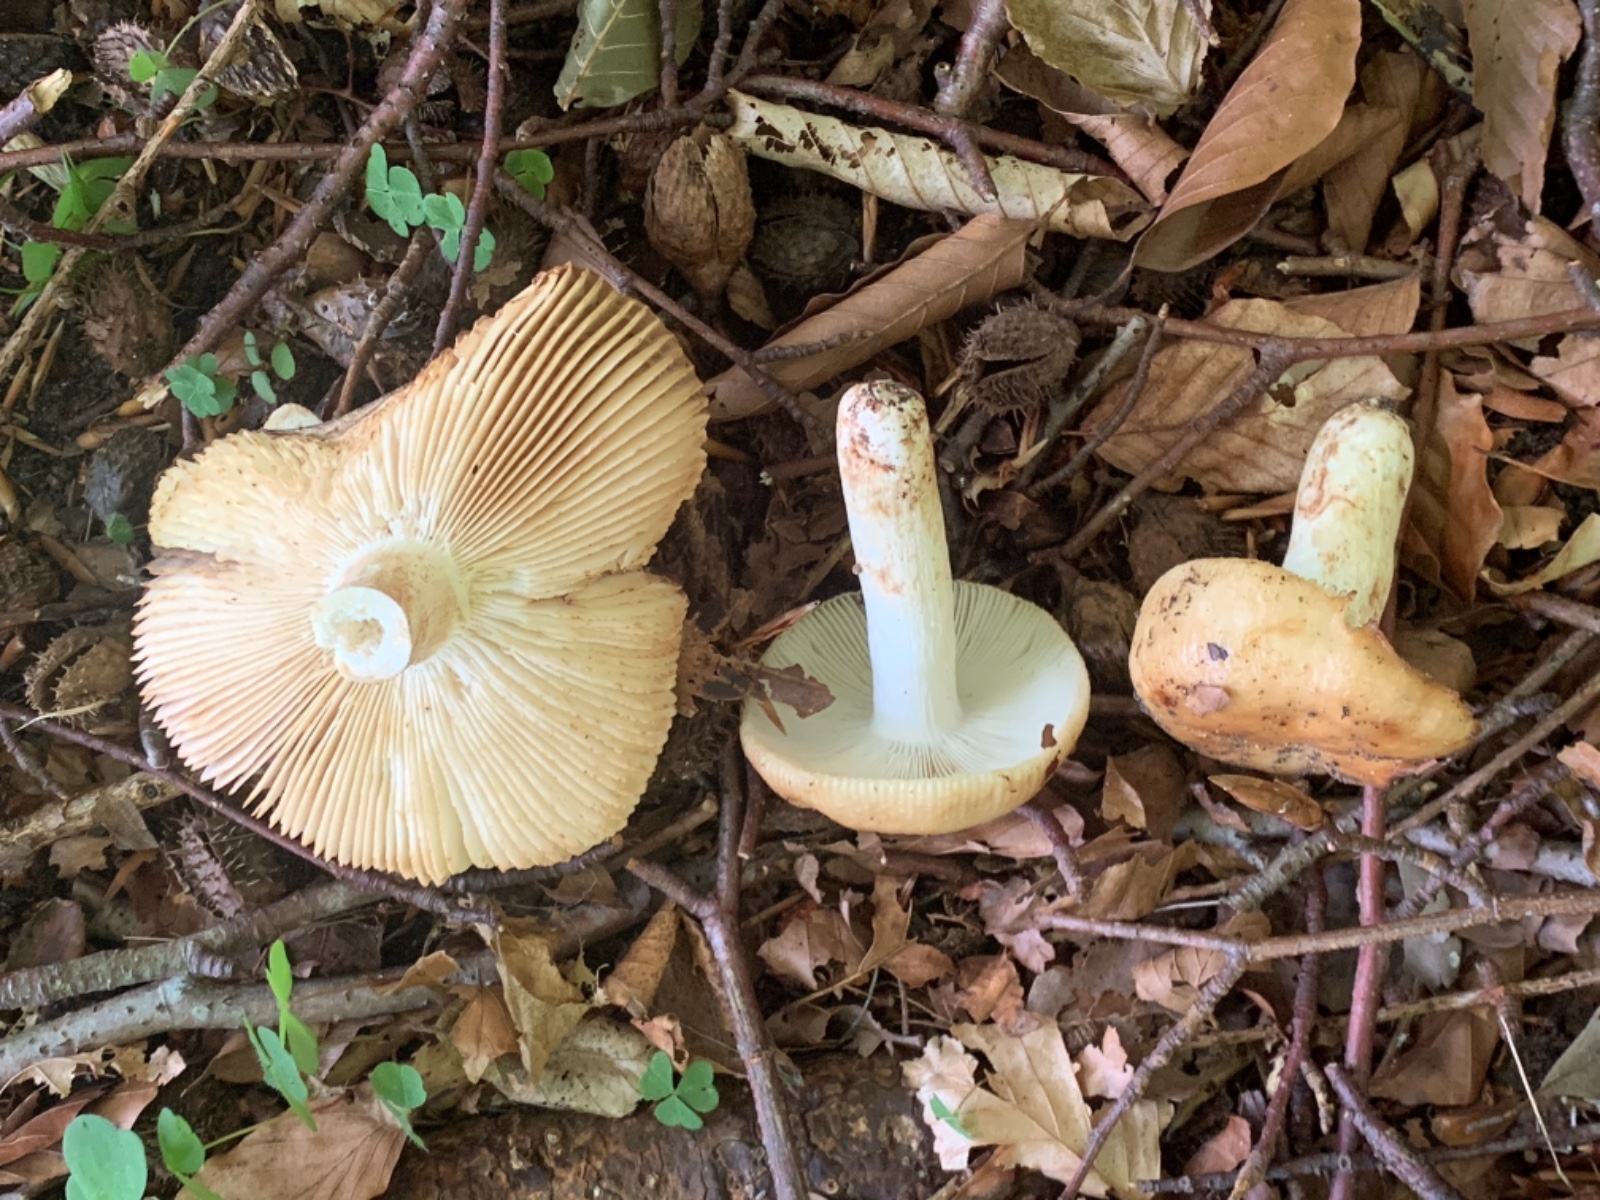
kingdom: Fungi
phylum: Basidiomycota
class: Agaricomycetes
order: Russulales
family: Russulaceae
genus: Russula
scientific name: Russula grata
